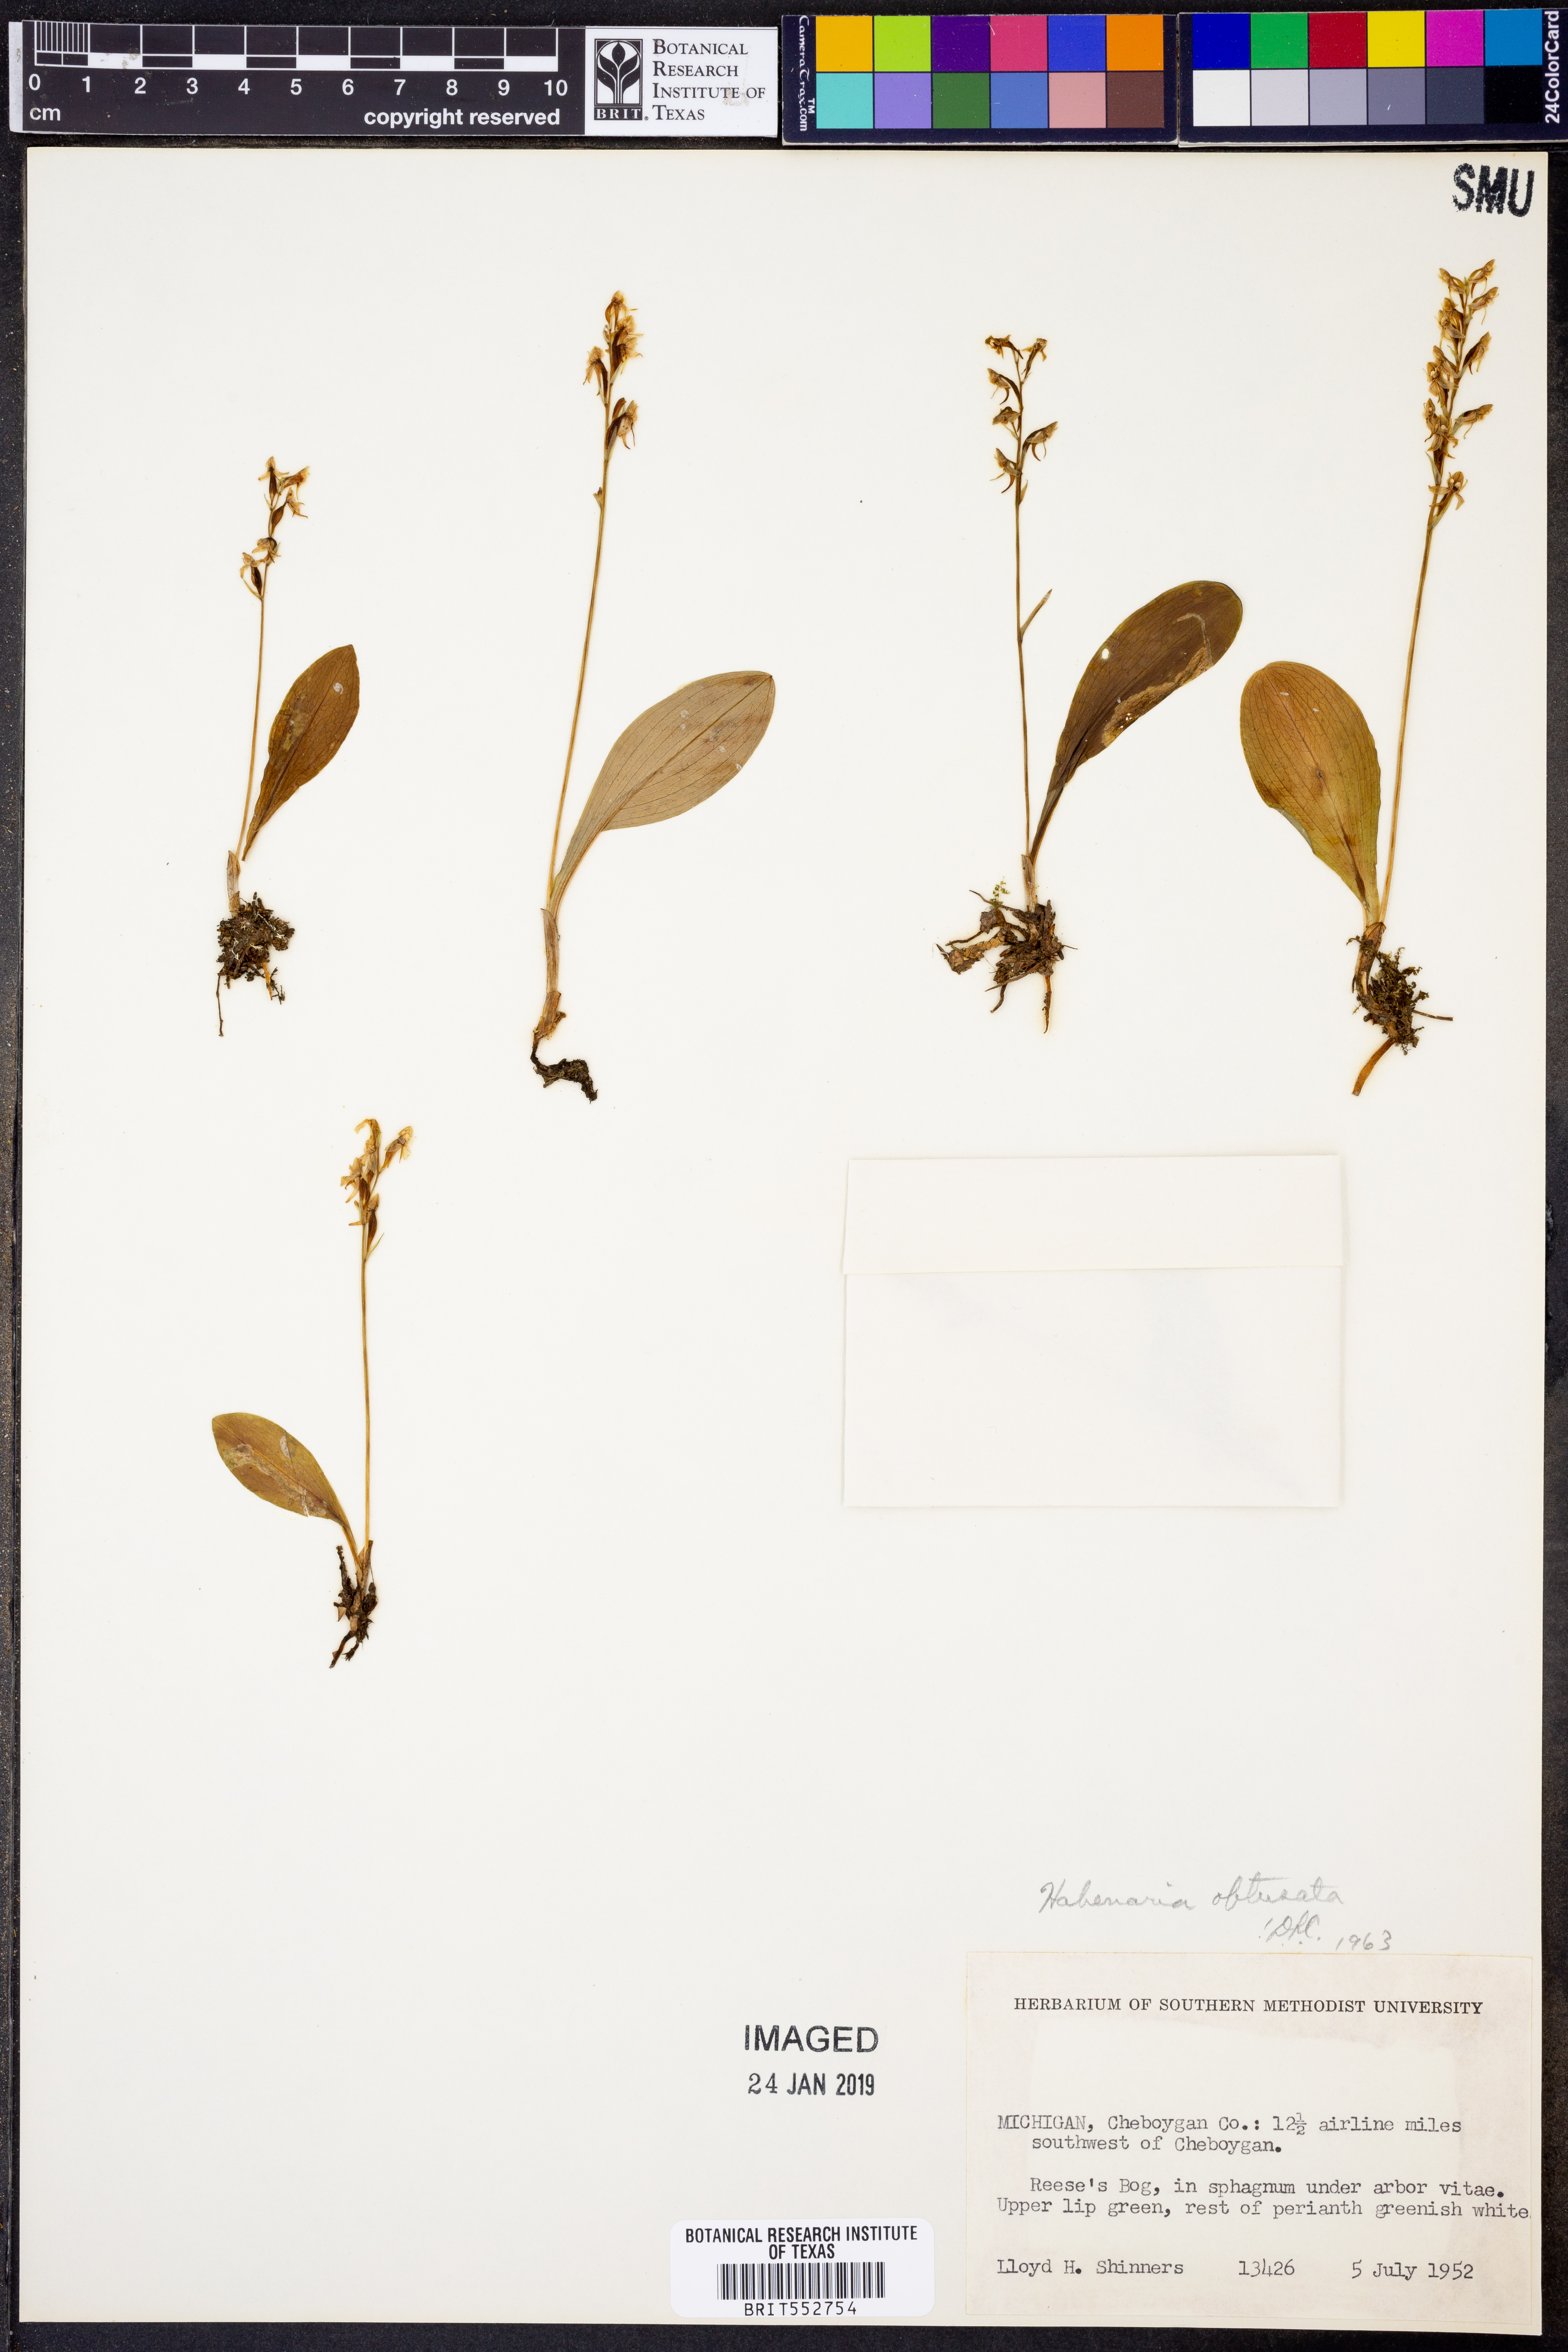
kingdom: Plantae
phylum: Tracheophyta
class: Liliopsida
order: Asparagales
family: Orchidaceae
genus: Platanthera
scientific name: Platanthera obtusata
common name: Blunt bog orchid
